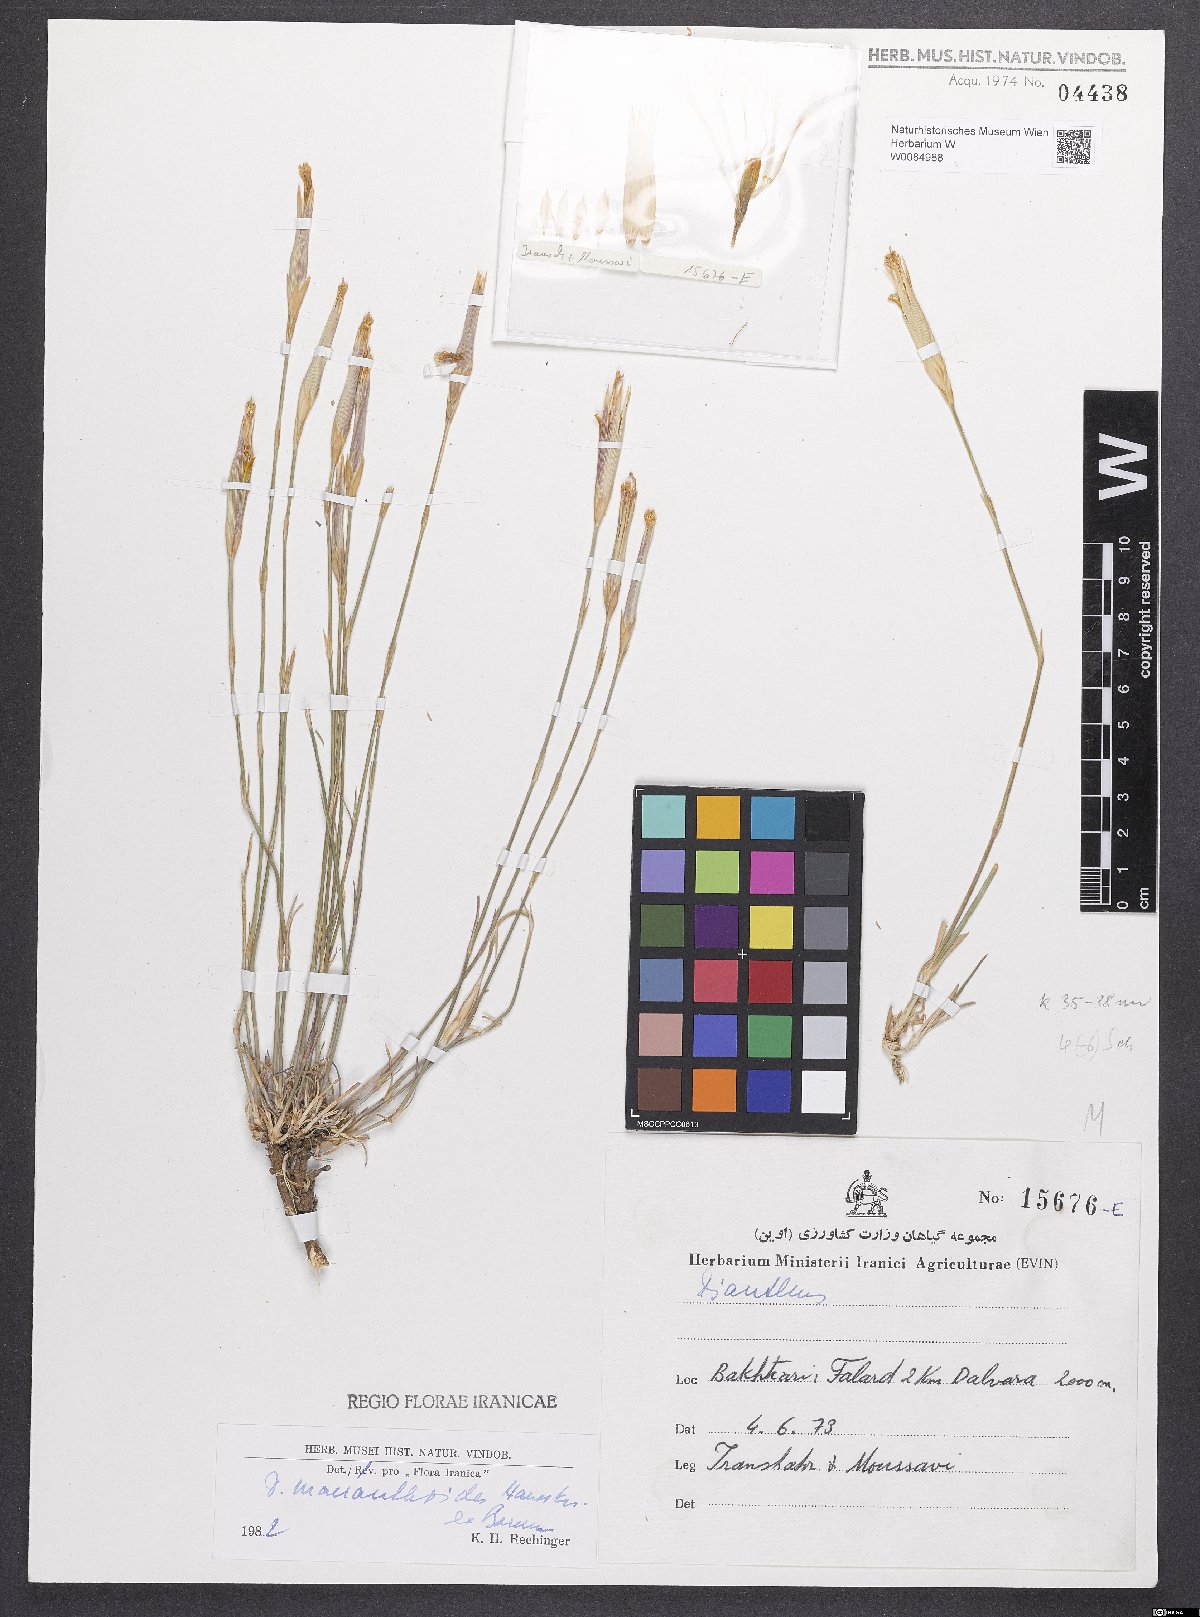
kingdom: Plantae
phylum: Tracheophyta
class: Magnoliopsida
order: Caryophyllales
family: Caryophyllaceae
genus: Dianthus
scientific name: Dianthus macranthoides
